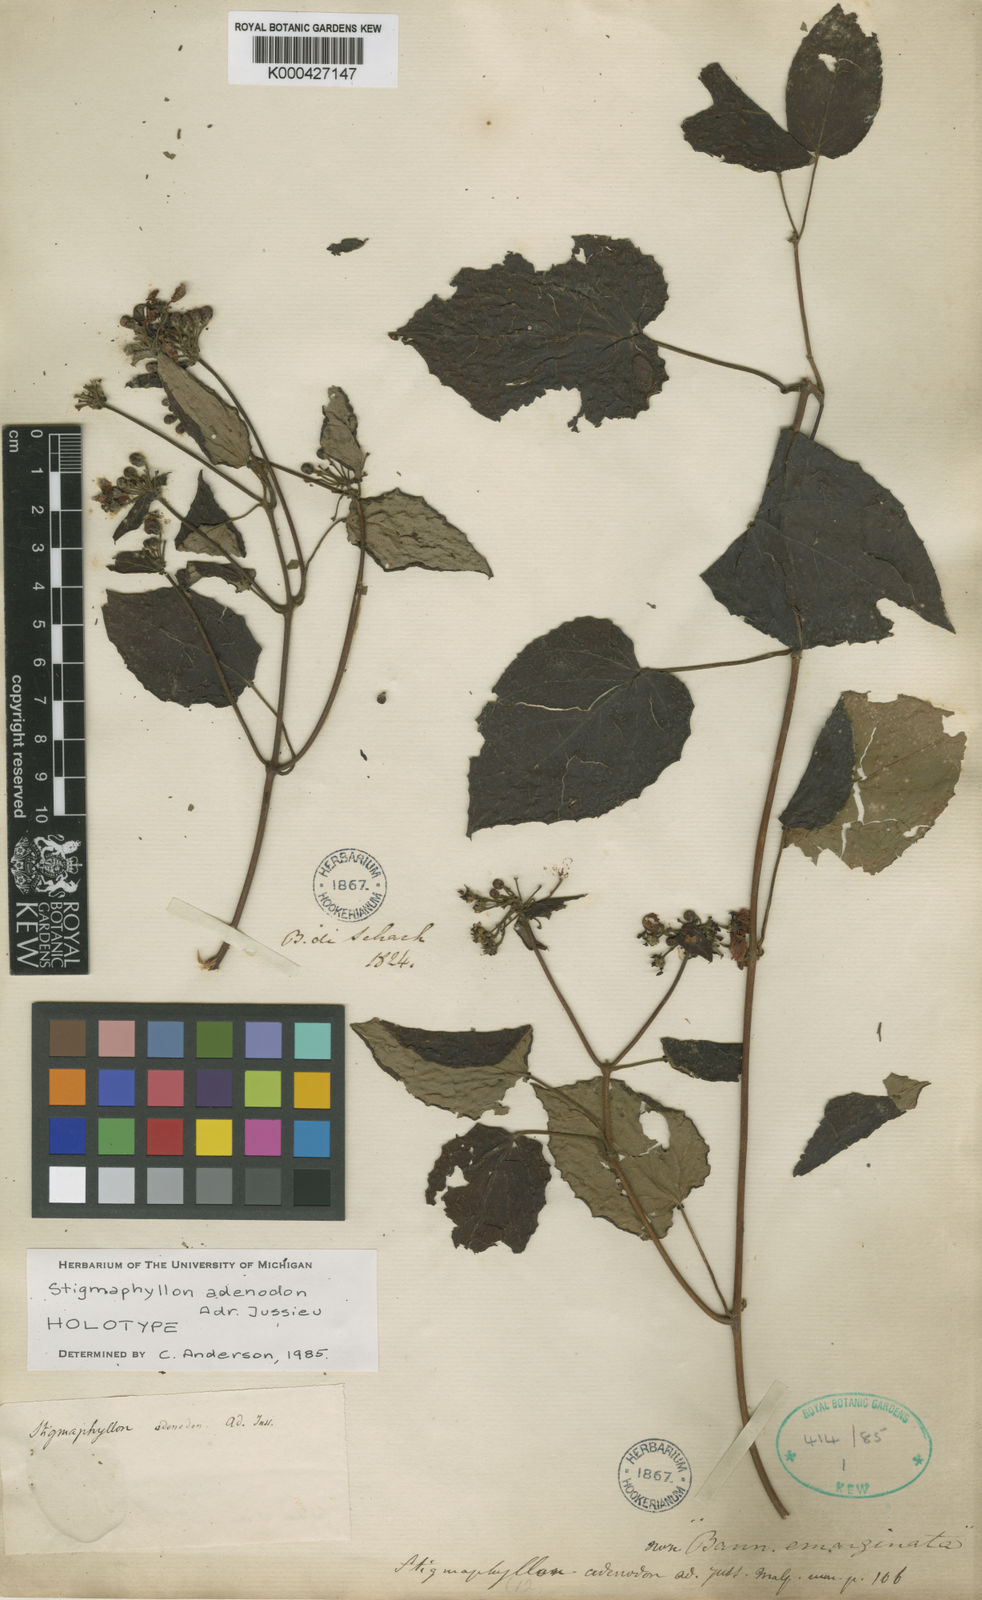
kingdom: Plantae
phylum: Tracheophyta
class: Magnoliopsida
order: Malpighiales
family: Malpighiaceae
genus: Stigmaphyllon
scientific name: Stigmaphyllon adenodon
